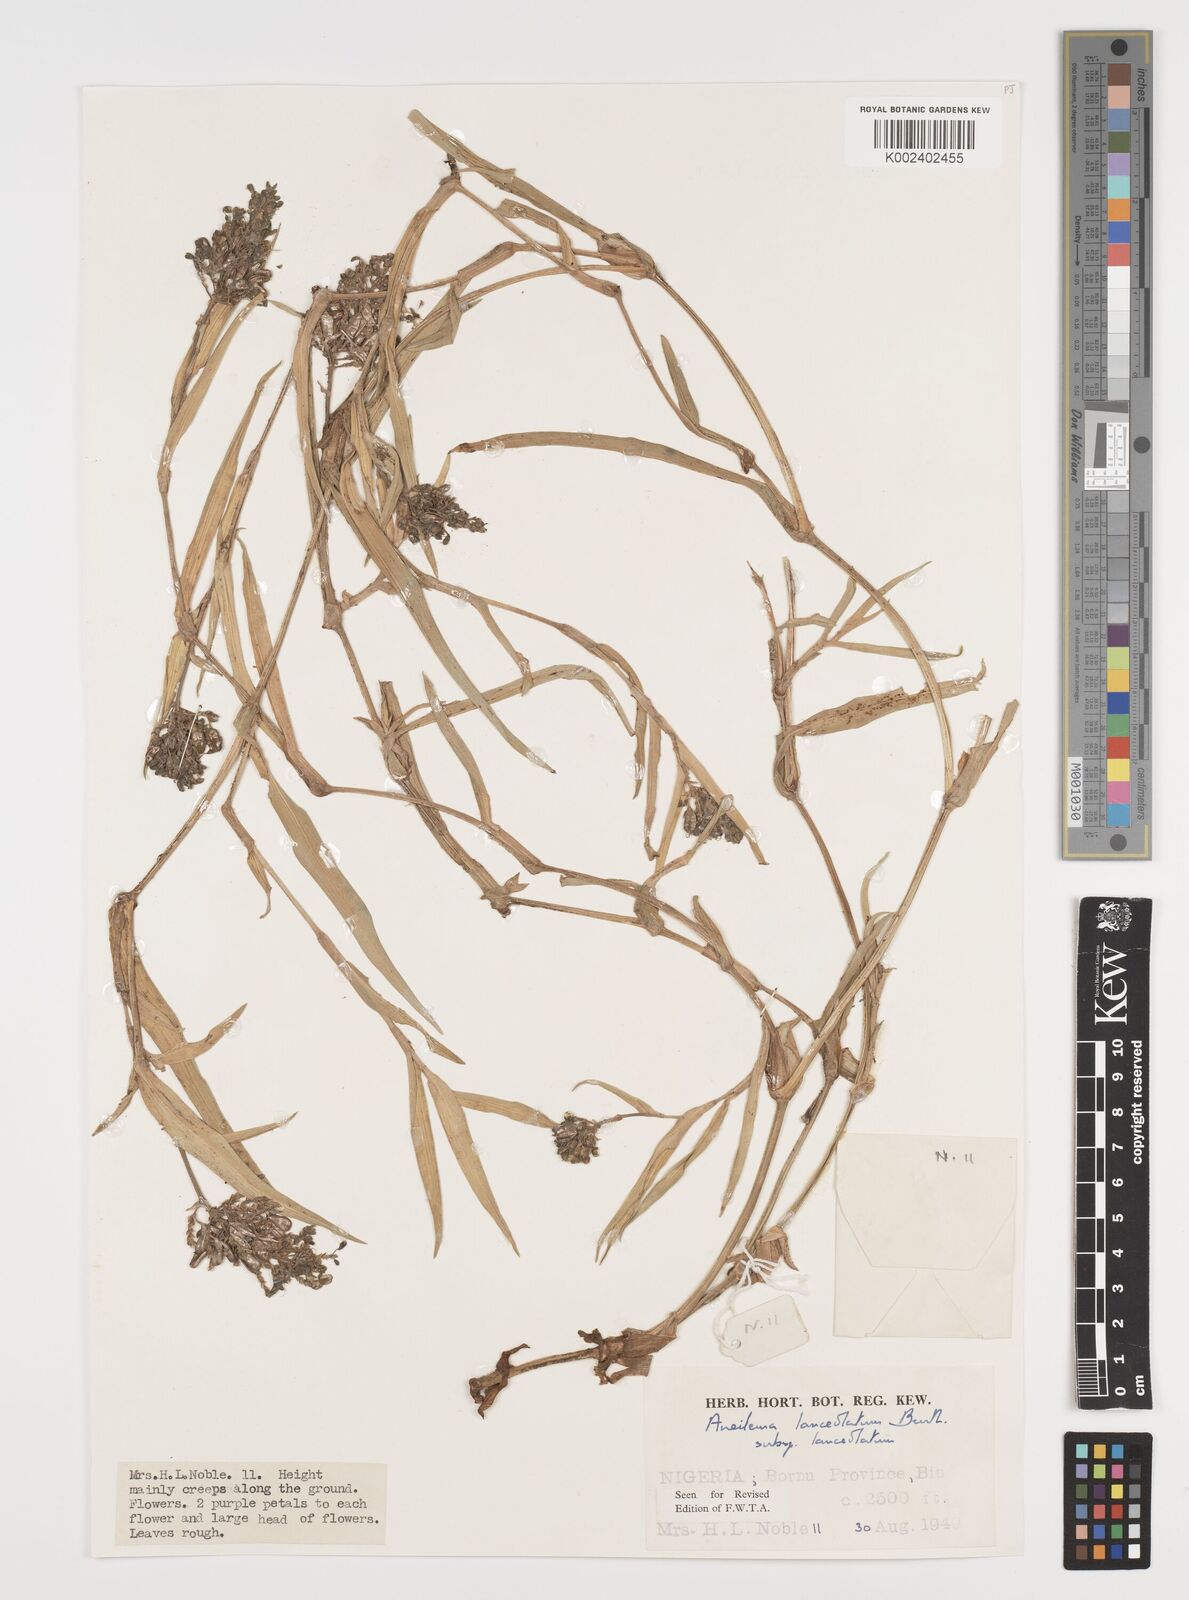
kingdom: Plantae
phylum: Tracheophyta
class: Liliopsida
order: Commelinales
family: Commelinaceae
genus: Aneilema
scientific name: Aneilema lanceolatum
